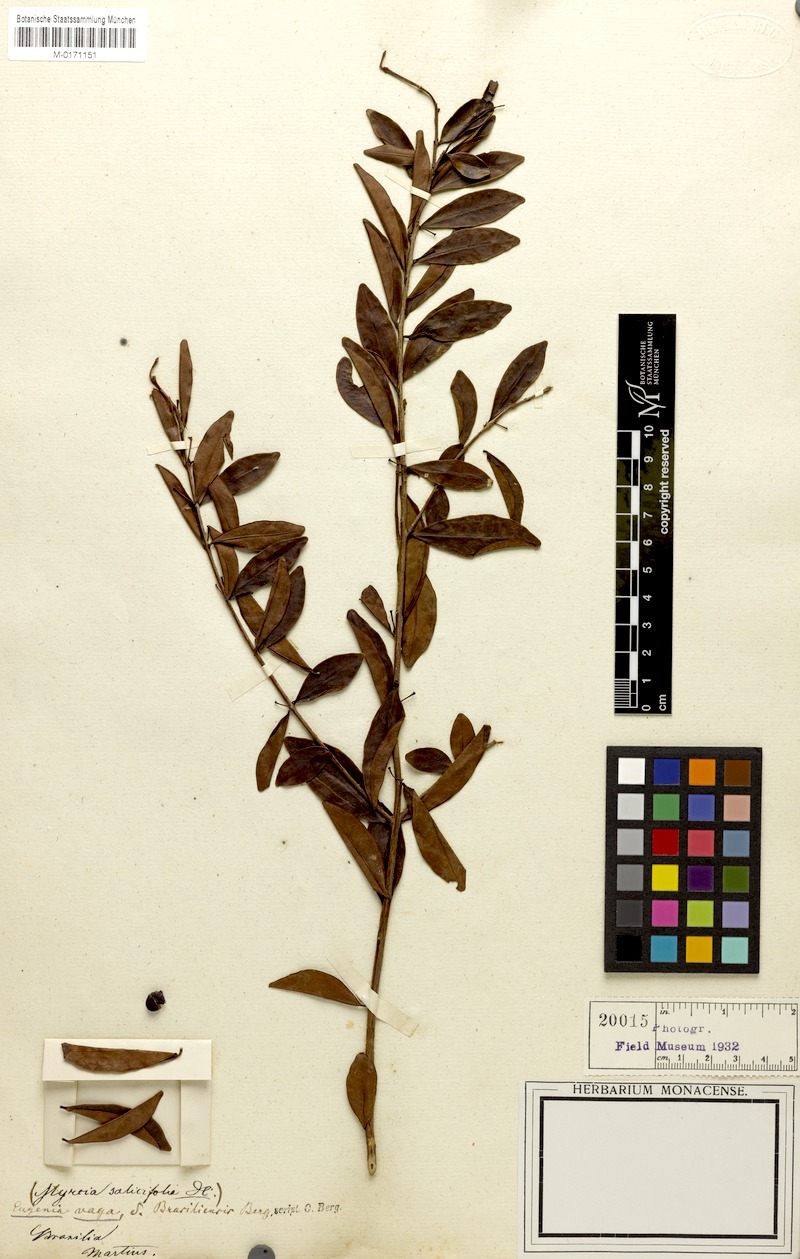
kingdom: Plantae
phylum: Tracheophyta
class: Magnoliopsida
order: Myrtales
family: Myrtaceae
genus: Eugenia
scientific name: Eugenia punicifolia
